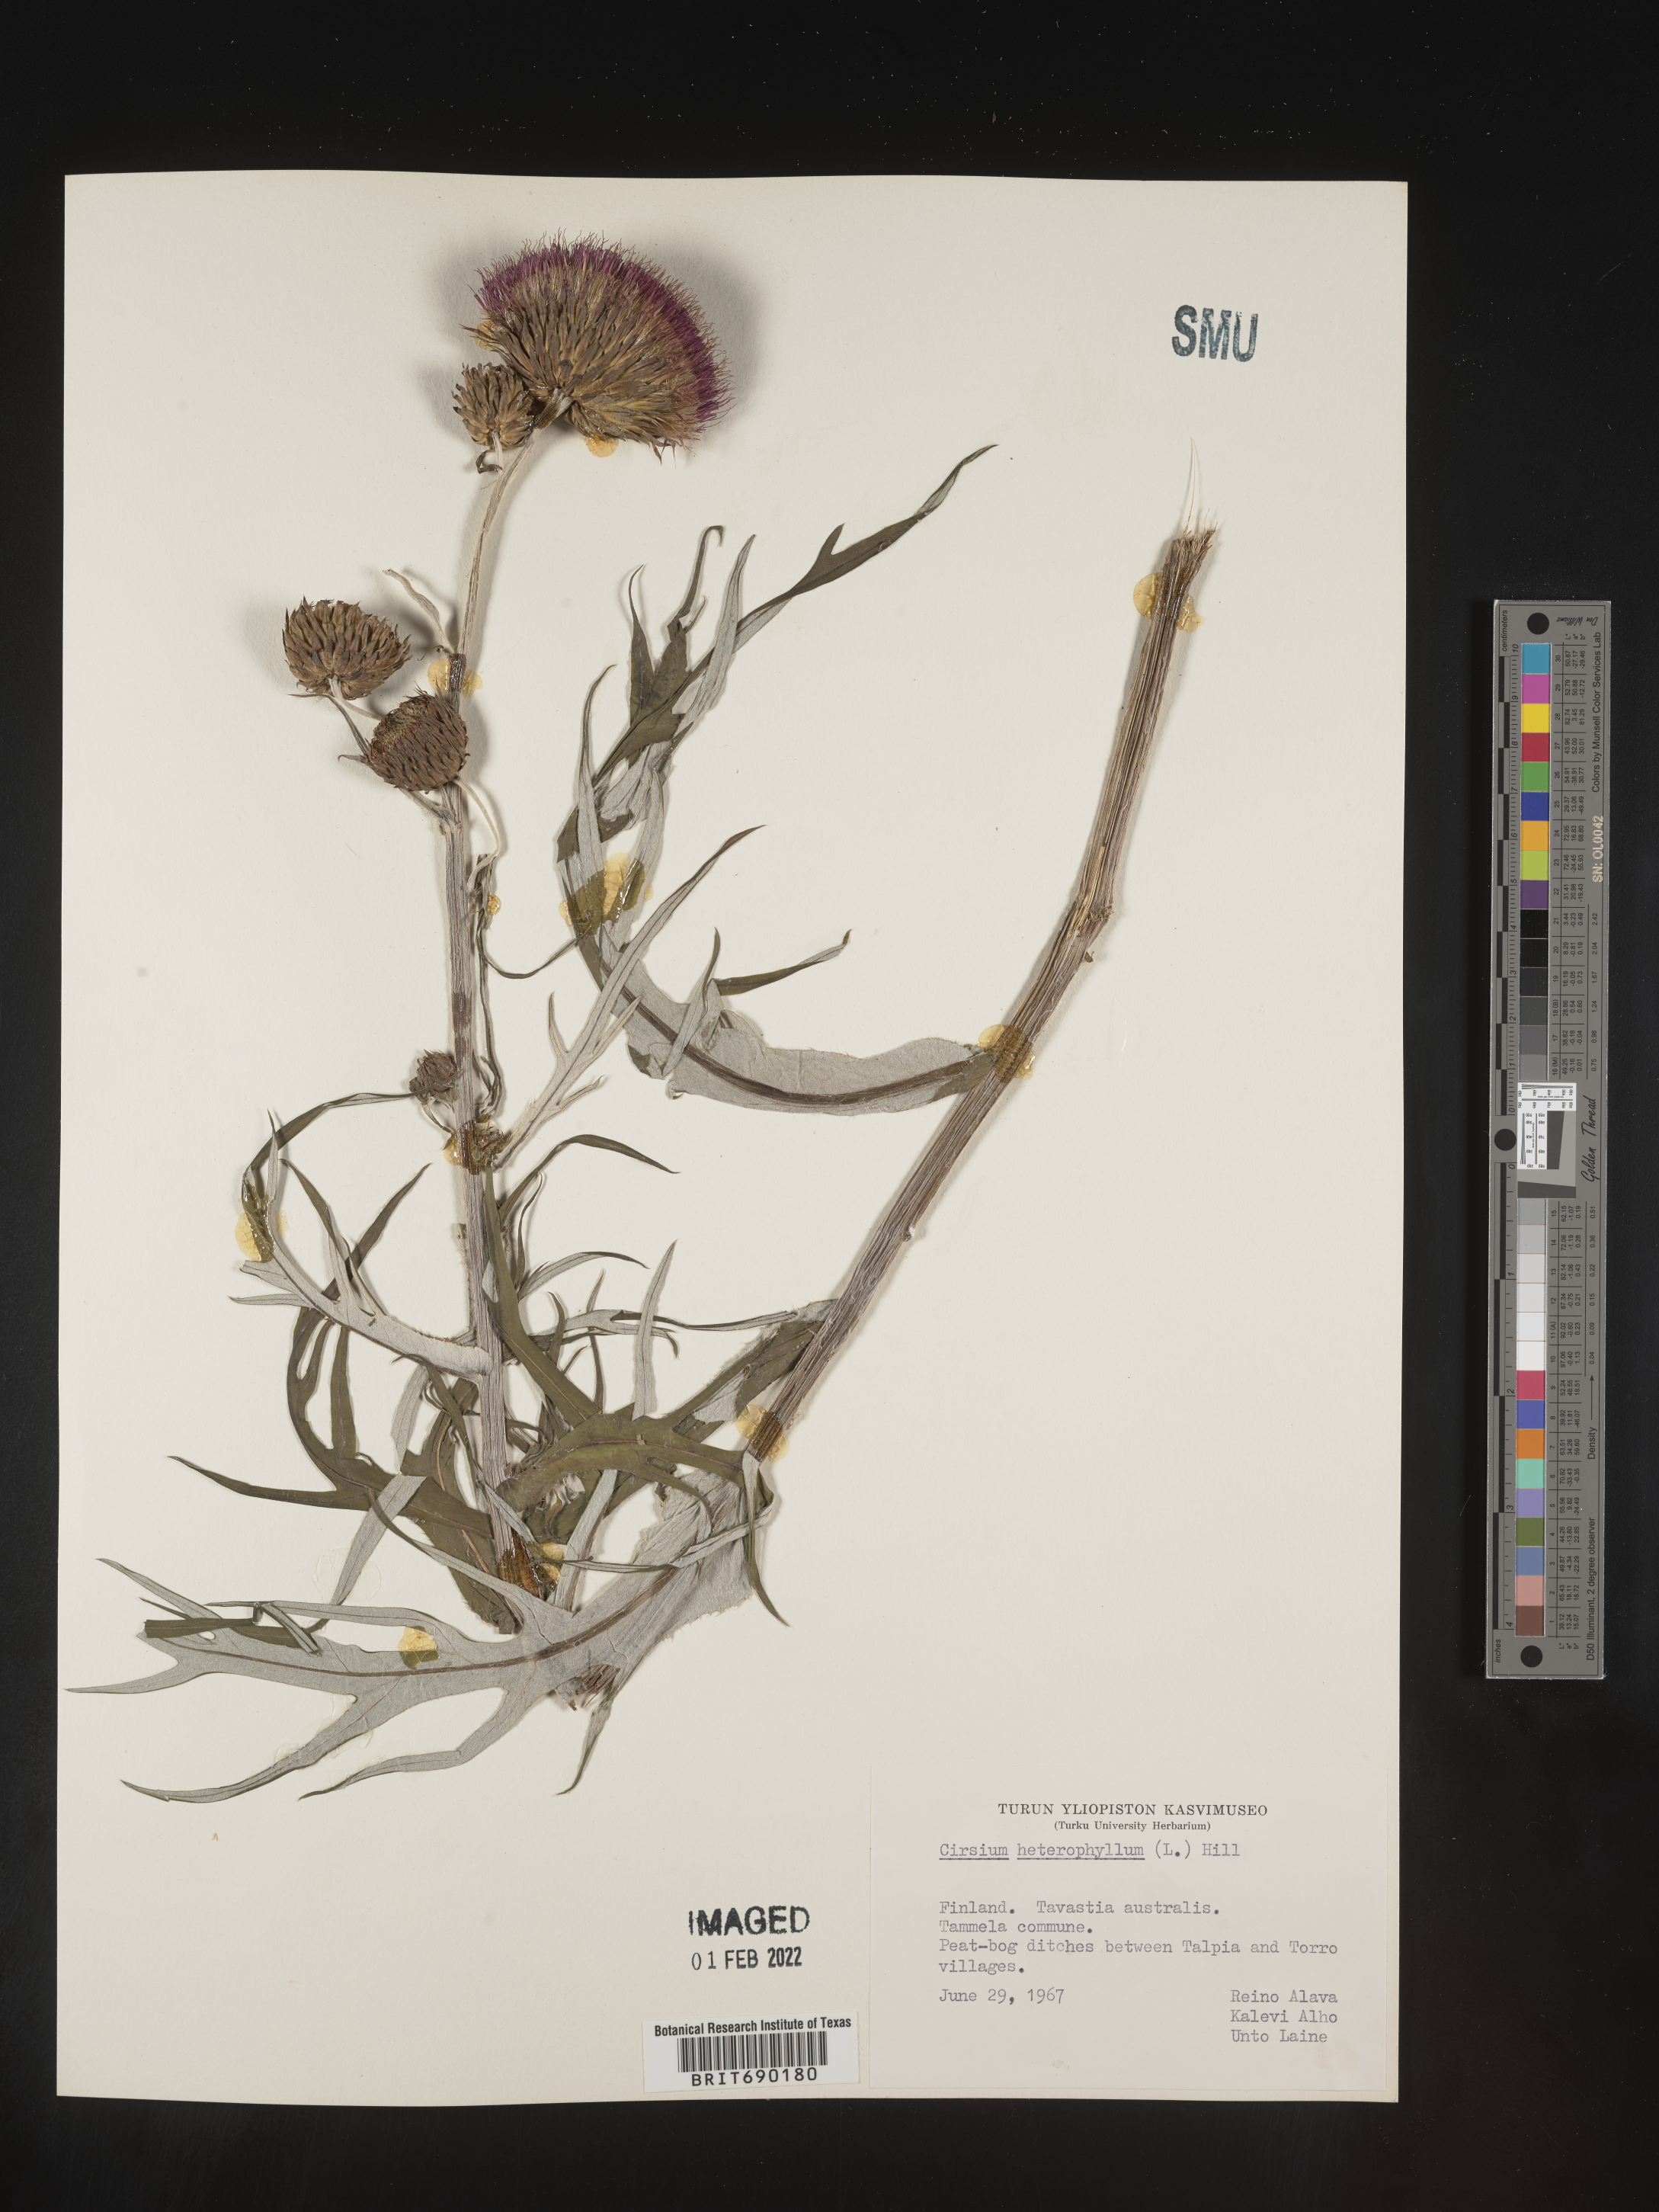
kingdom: Plantae
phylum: Tracheophyta
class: Magnoliopsida
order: Asterales
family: Asteraceae
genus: Cirsium
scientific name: Cirsium
